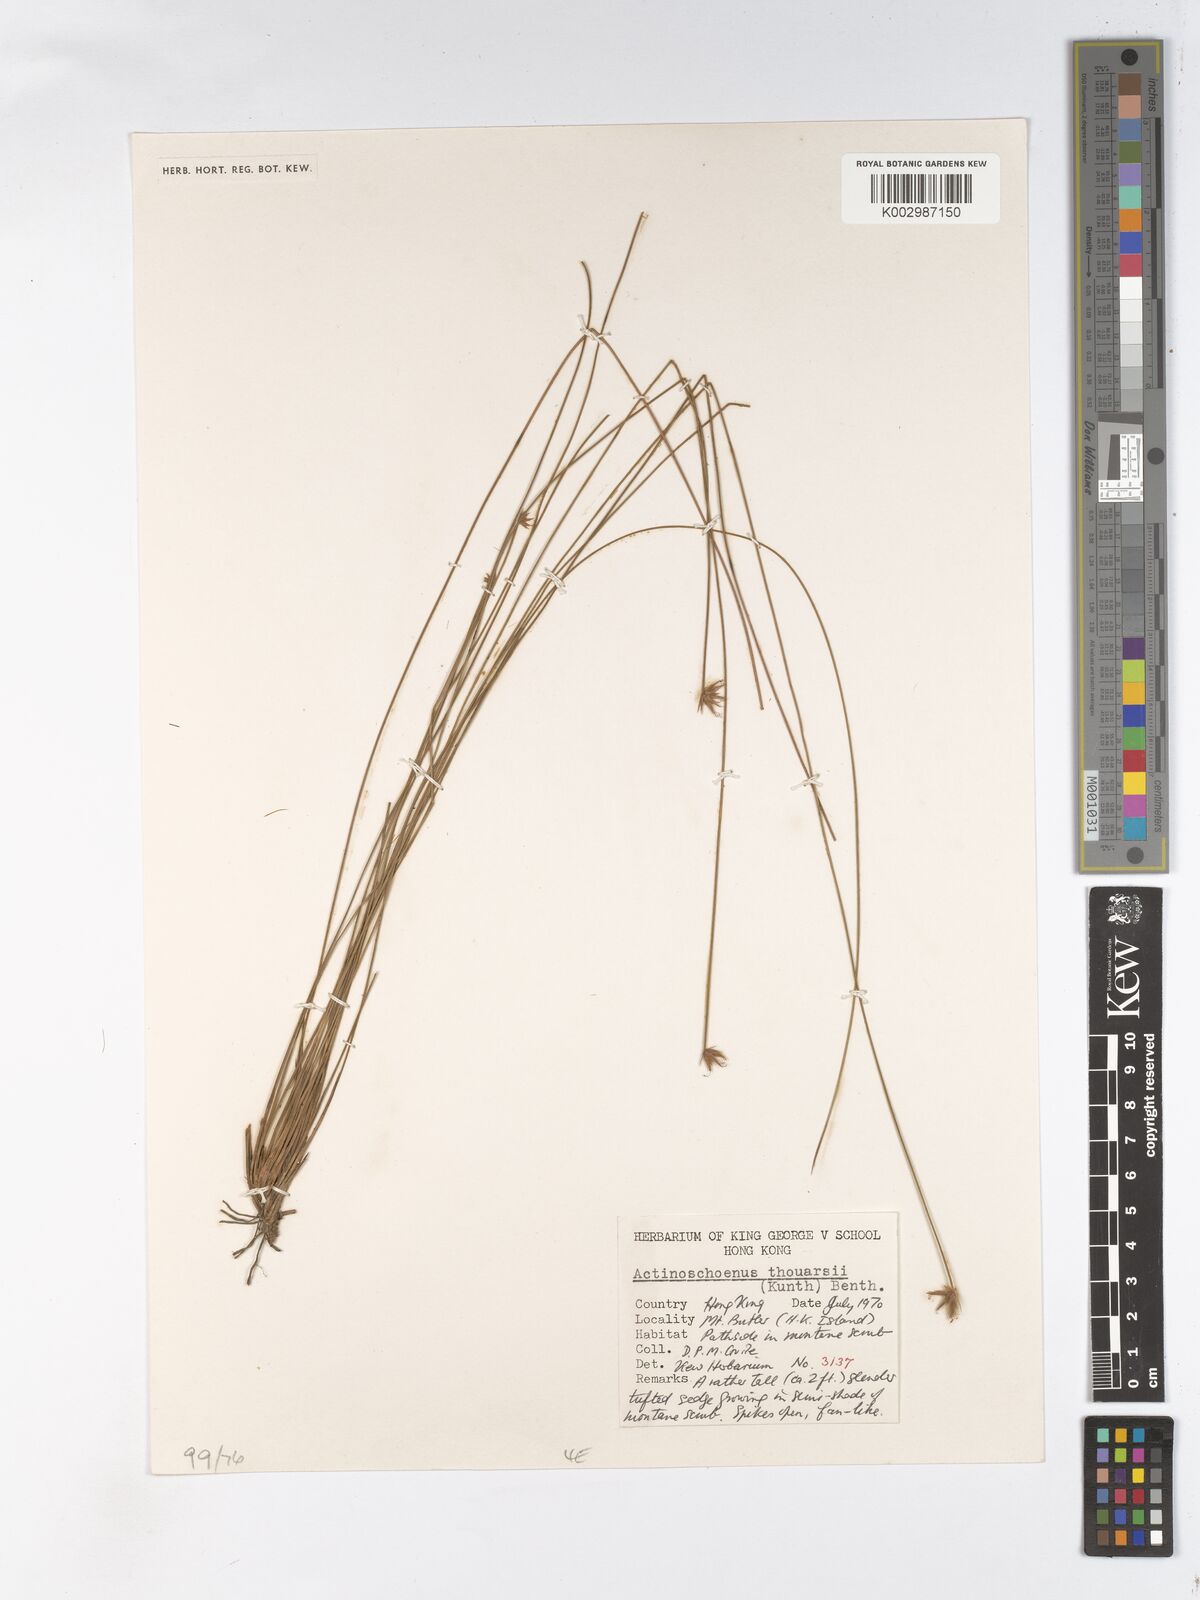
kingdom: Plantae
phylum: Tracheophyta
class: Liliopsida
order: Poales
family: Cyperaceae
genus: Actinoschoenus
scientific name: Actinoschoenus aphyllus
